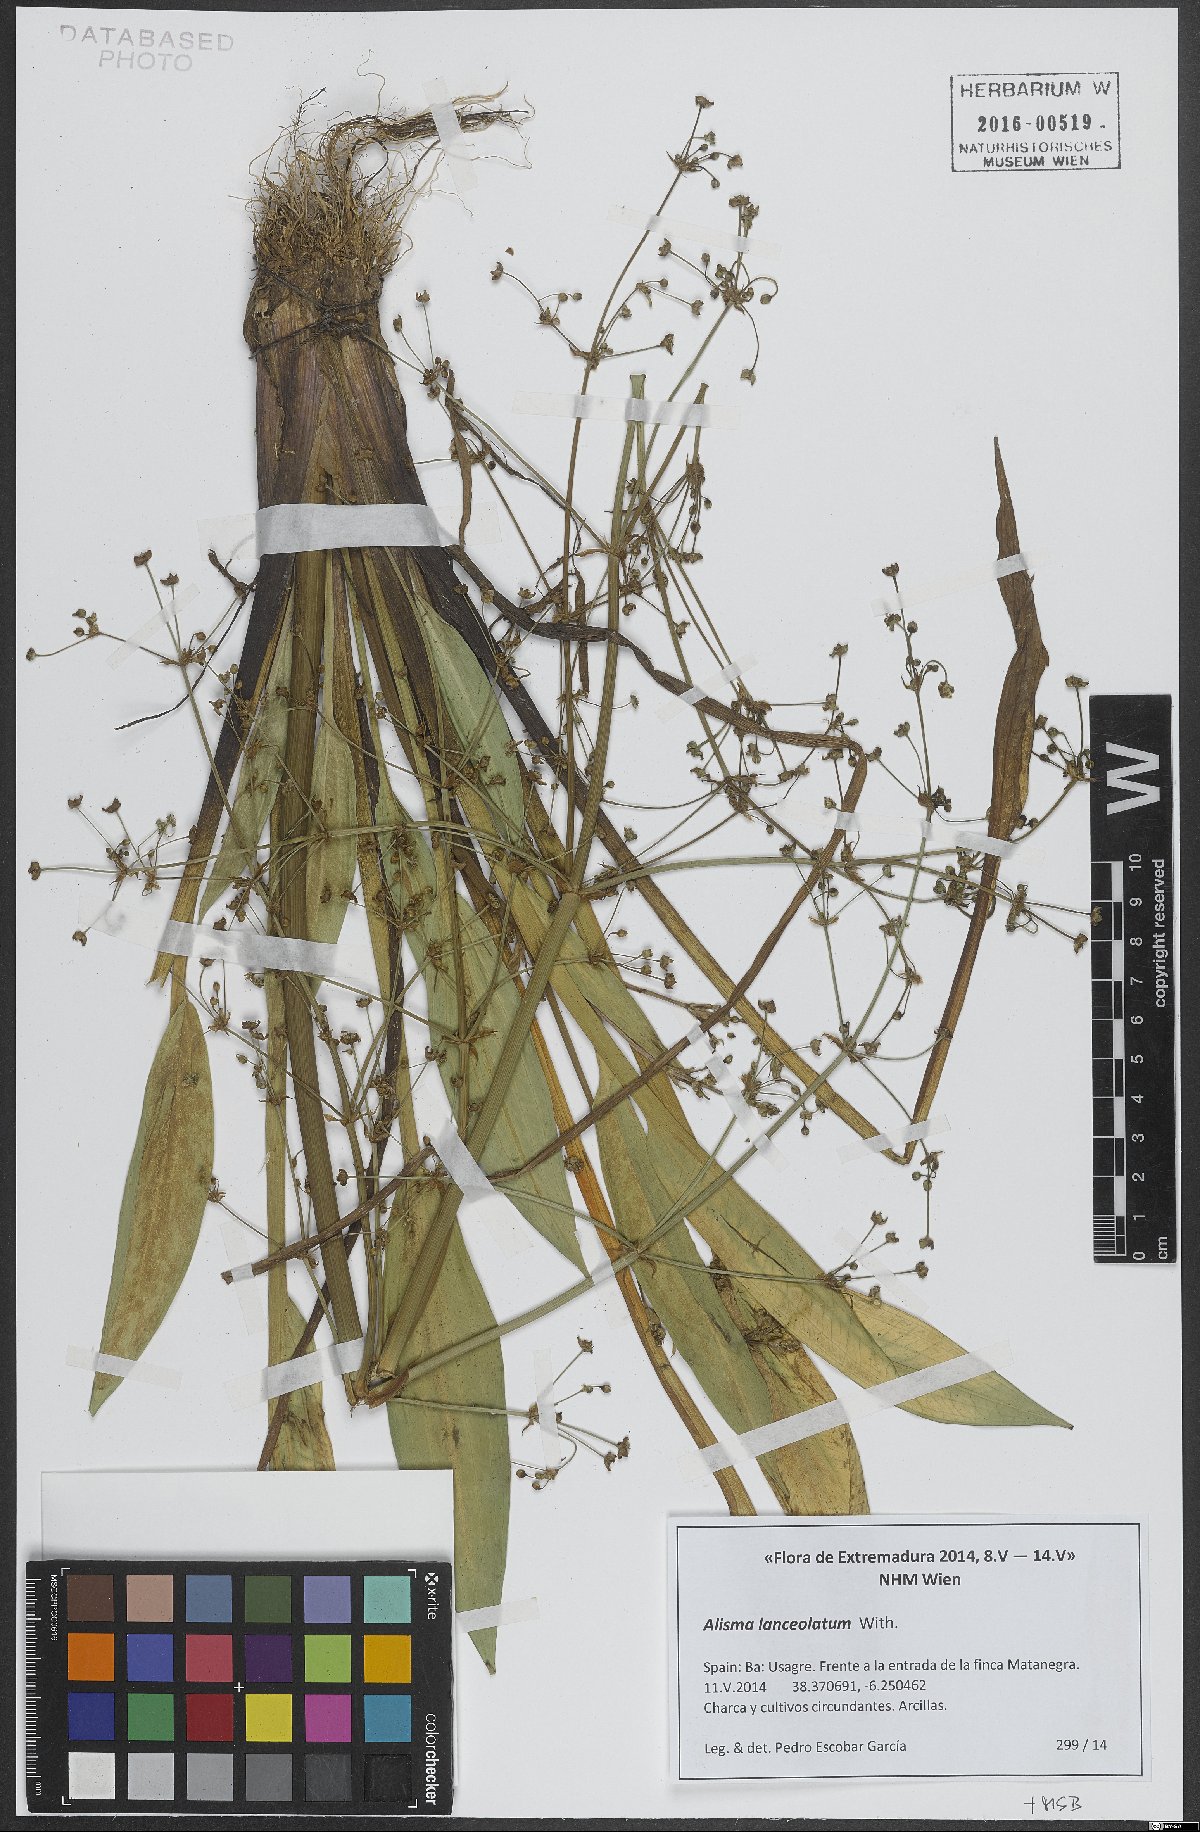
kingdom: Plantae
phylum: Tracheophyta
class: Liliopsida
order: Alismatales
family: Alismataceae
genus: Alisma
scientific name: Alisma lanceolatum
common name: Narrow-leaved water-plantain
